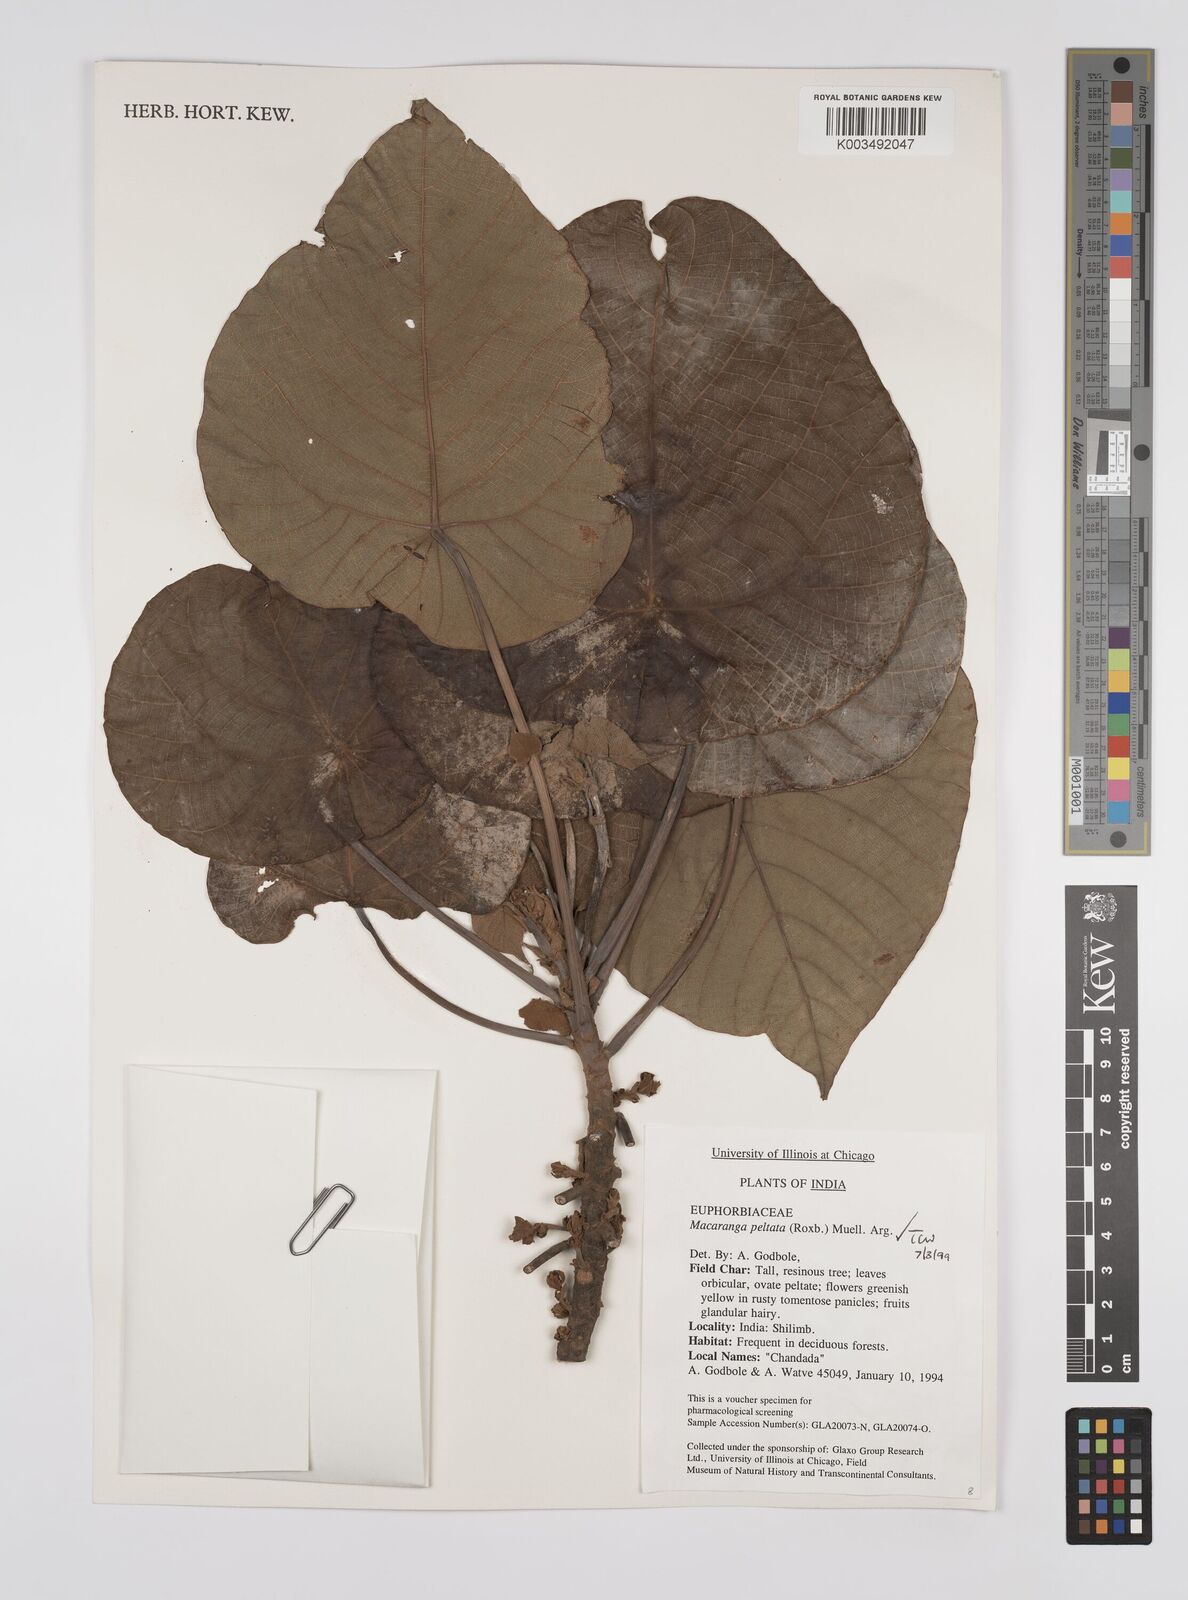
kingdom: Plantae
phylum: Tracheophyta
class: Magnoliopsida
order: Malpighiales
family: Euphorbiaceae
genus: Macaranga
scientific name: Macaranga peltata
